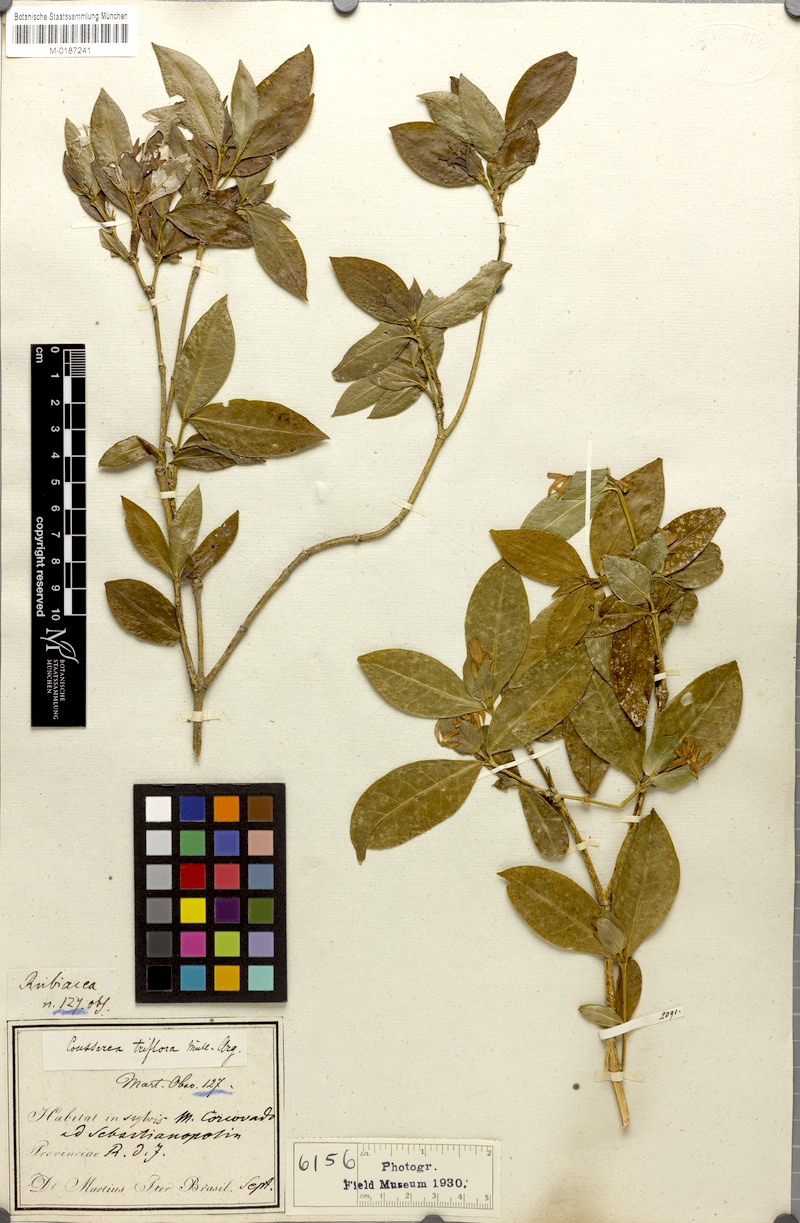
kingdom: Plantae
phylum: Tracheophyta
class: Magnoliopsida
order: Gentianales
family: Rubiaceae
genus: Coussarea
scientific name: Coussarea triflora
